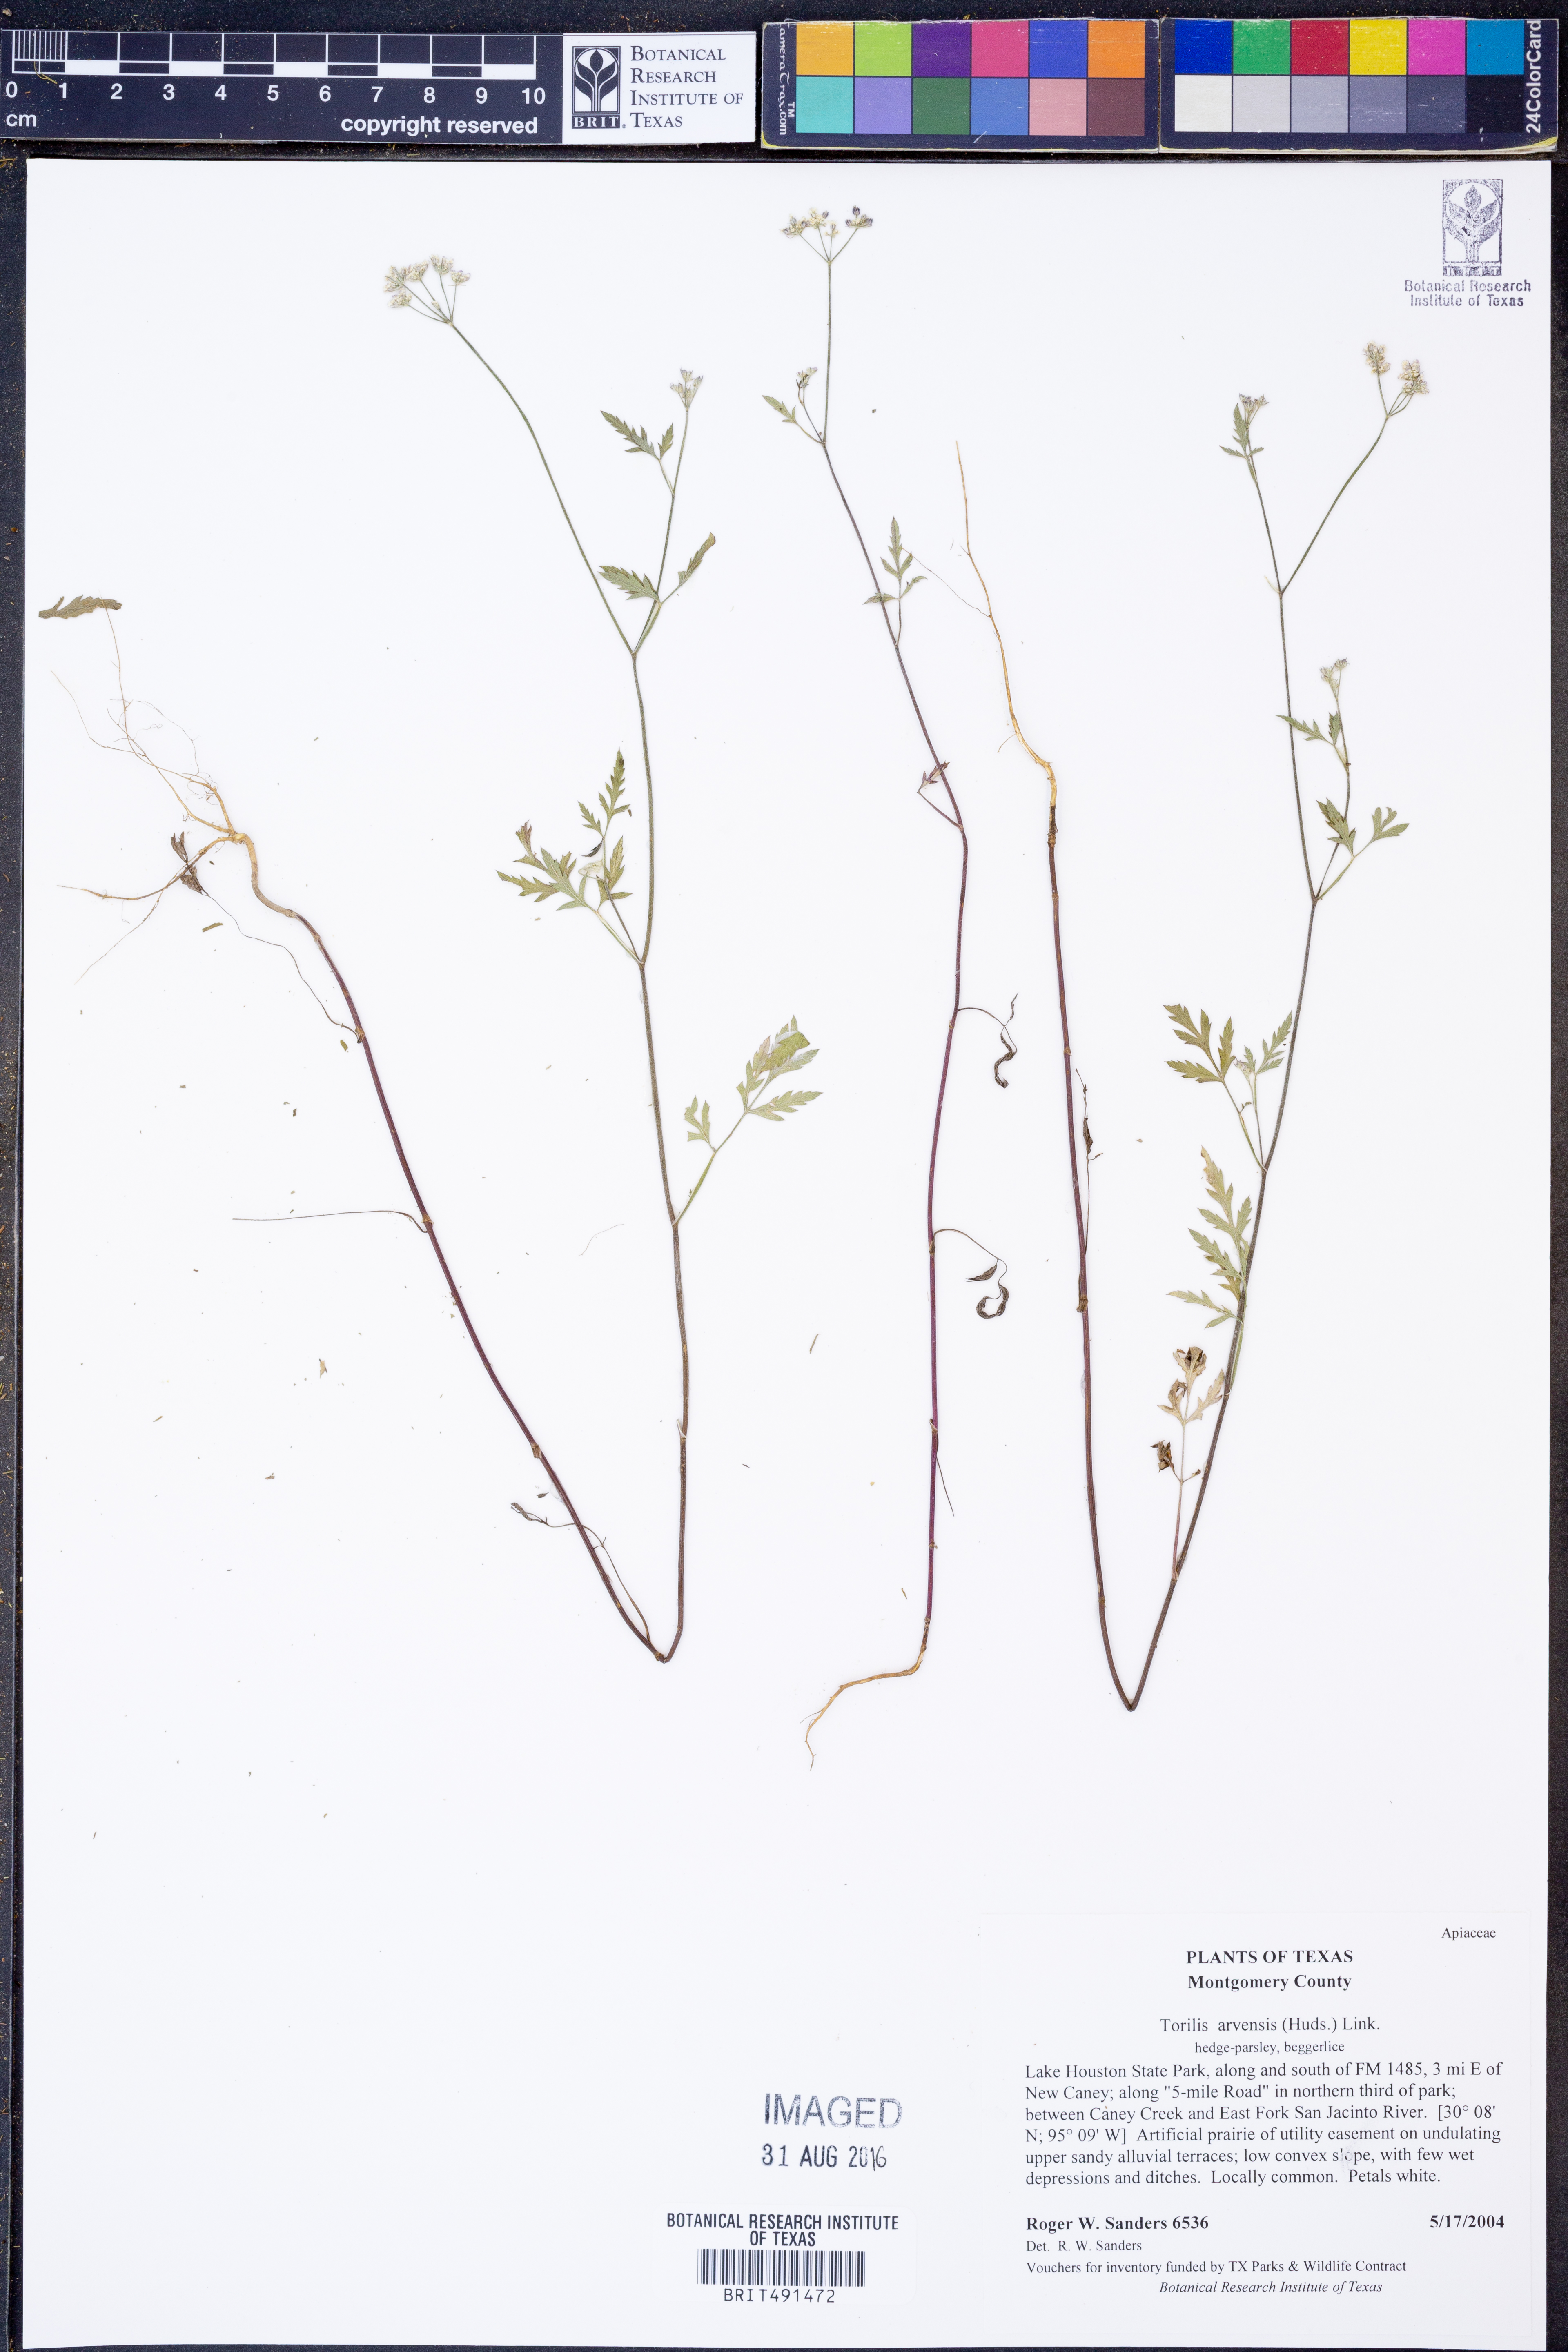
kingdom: Plantae
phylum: Tracheophyta
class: Magnoliopsida
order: Apiales
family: Apiaceae
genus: Torilis
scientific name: Torilis arvensis
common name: Spreading hedge-parsley
